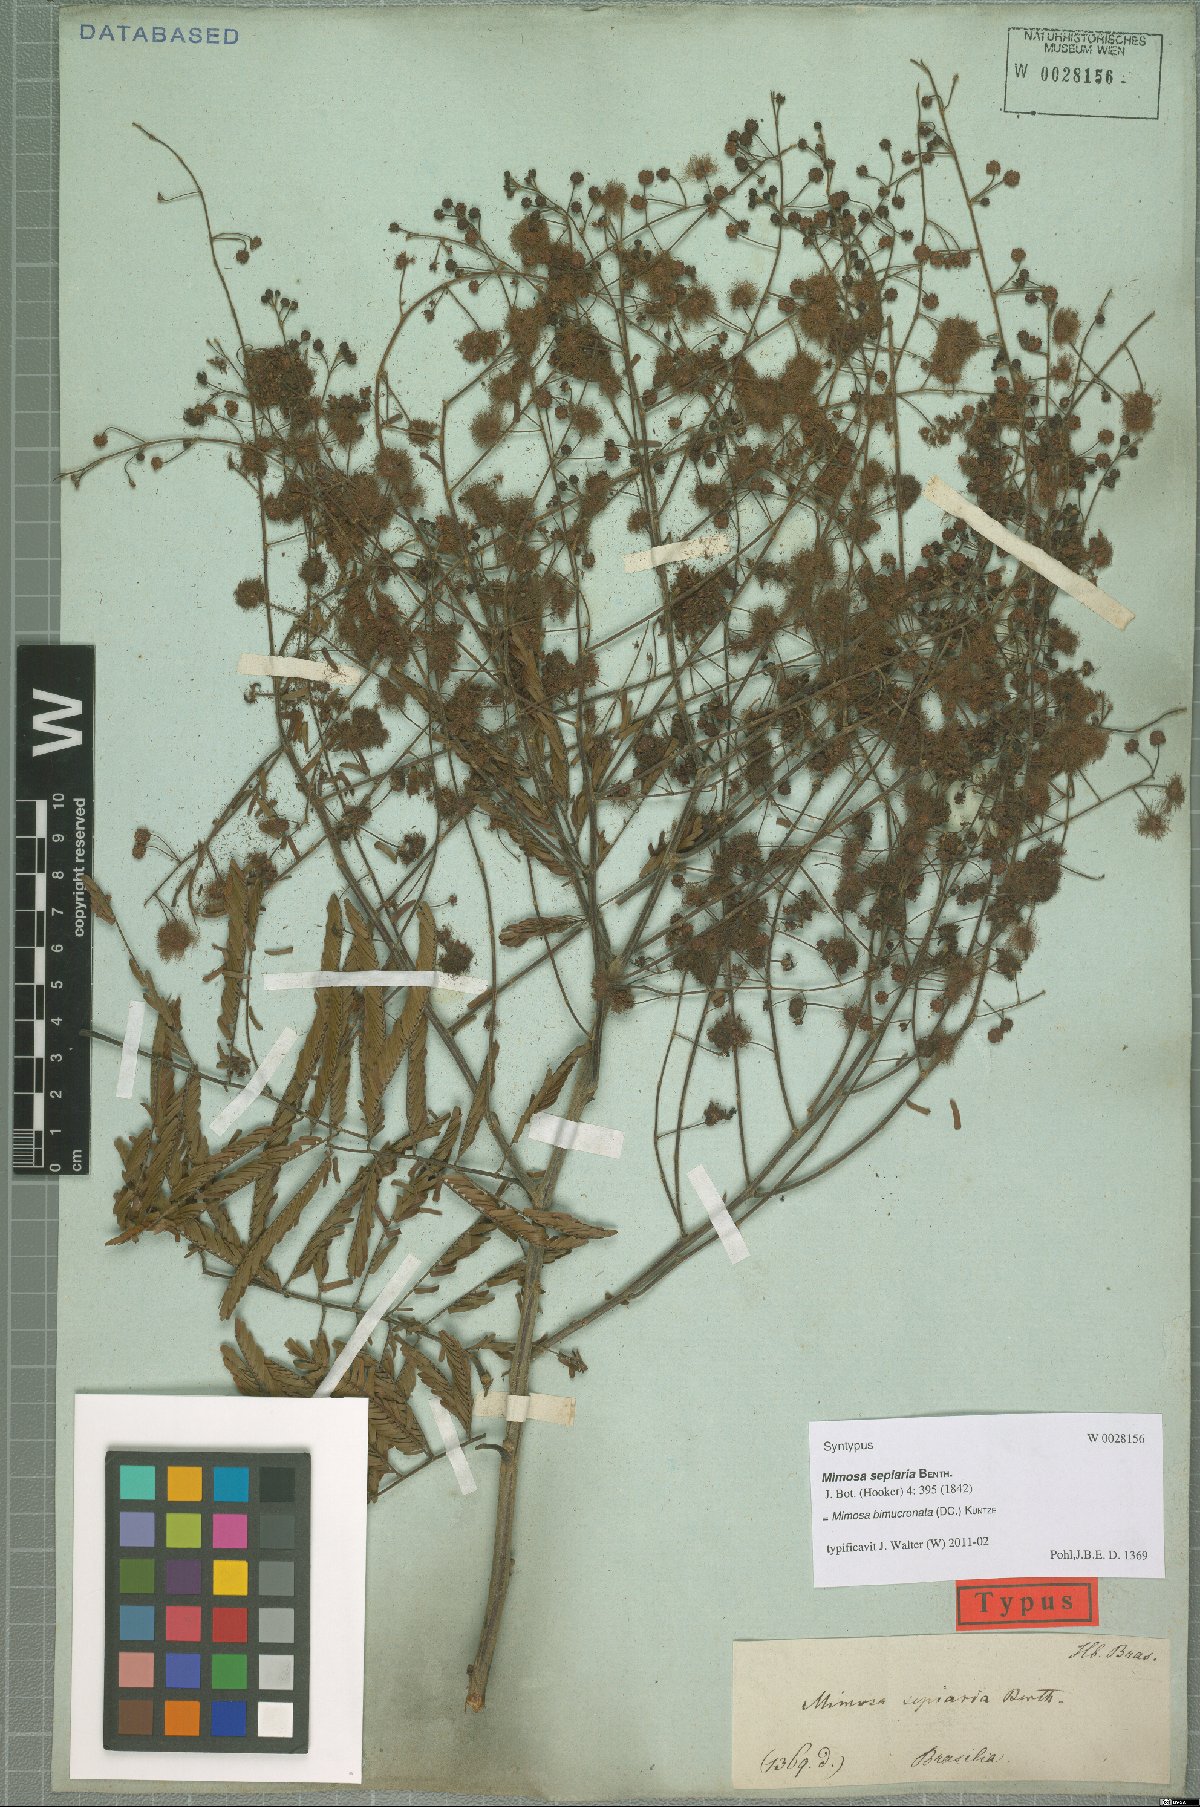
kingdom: Plantae
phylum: Tracheophyta
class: Magnoliopsida
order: Fabales
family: Fabaceae
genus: Mimosa
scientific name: Mimosa bimucronata
